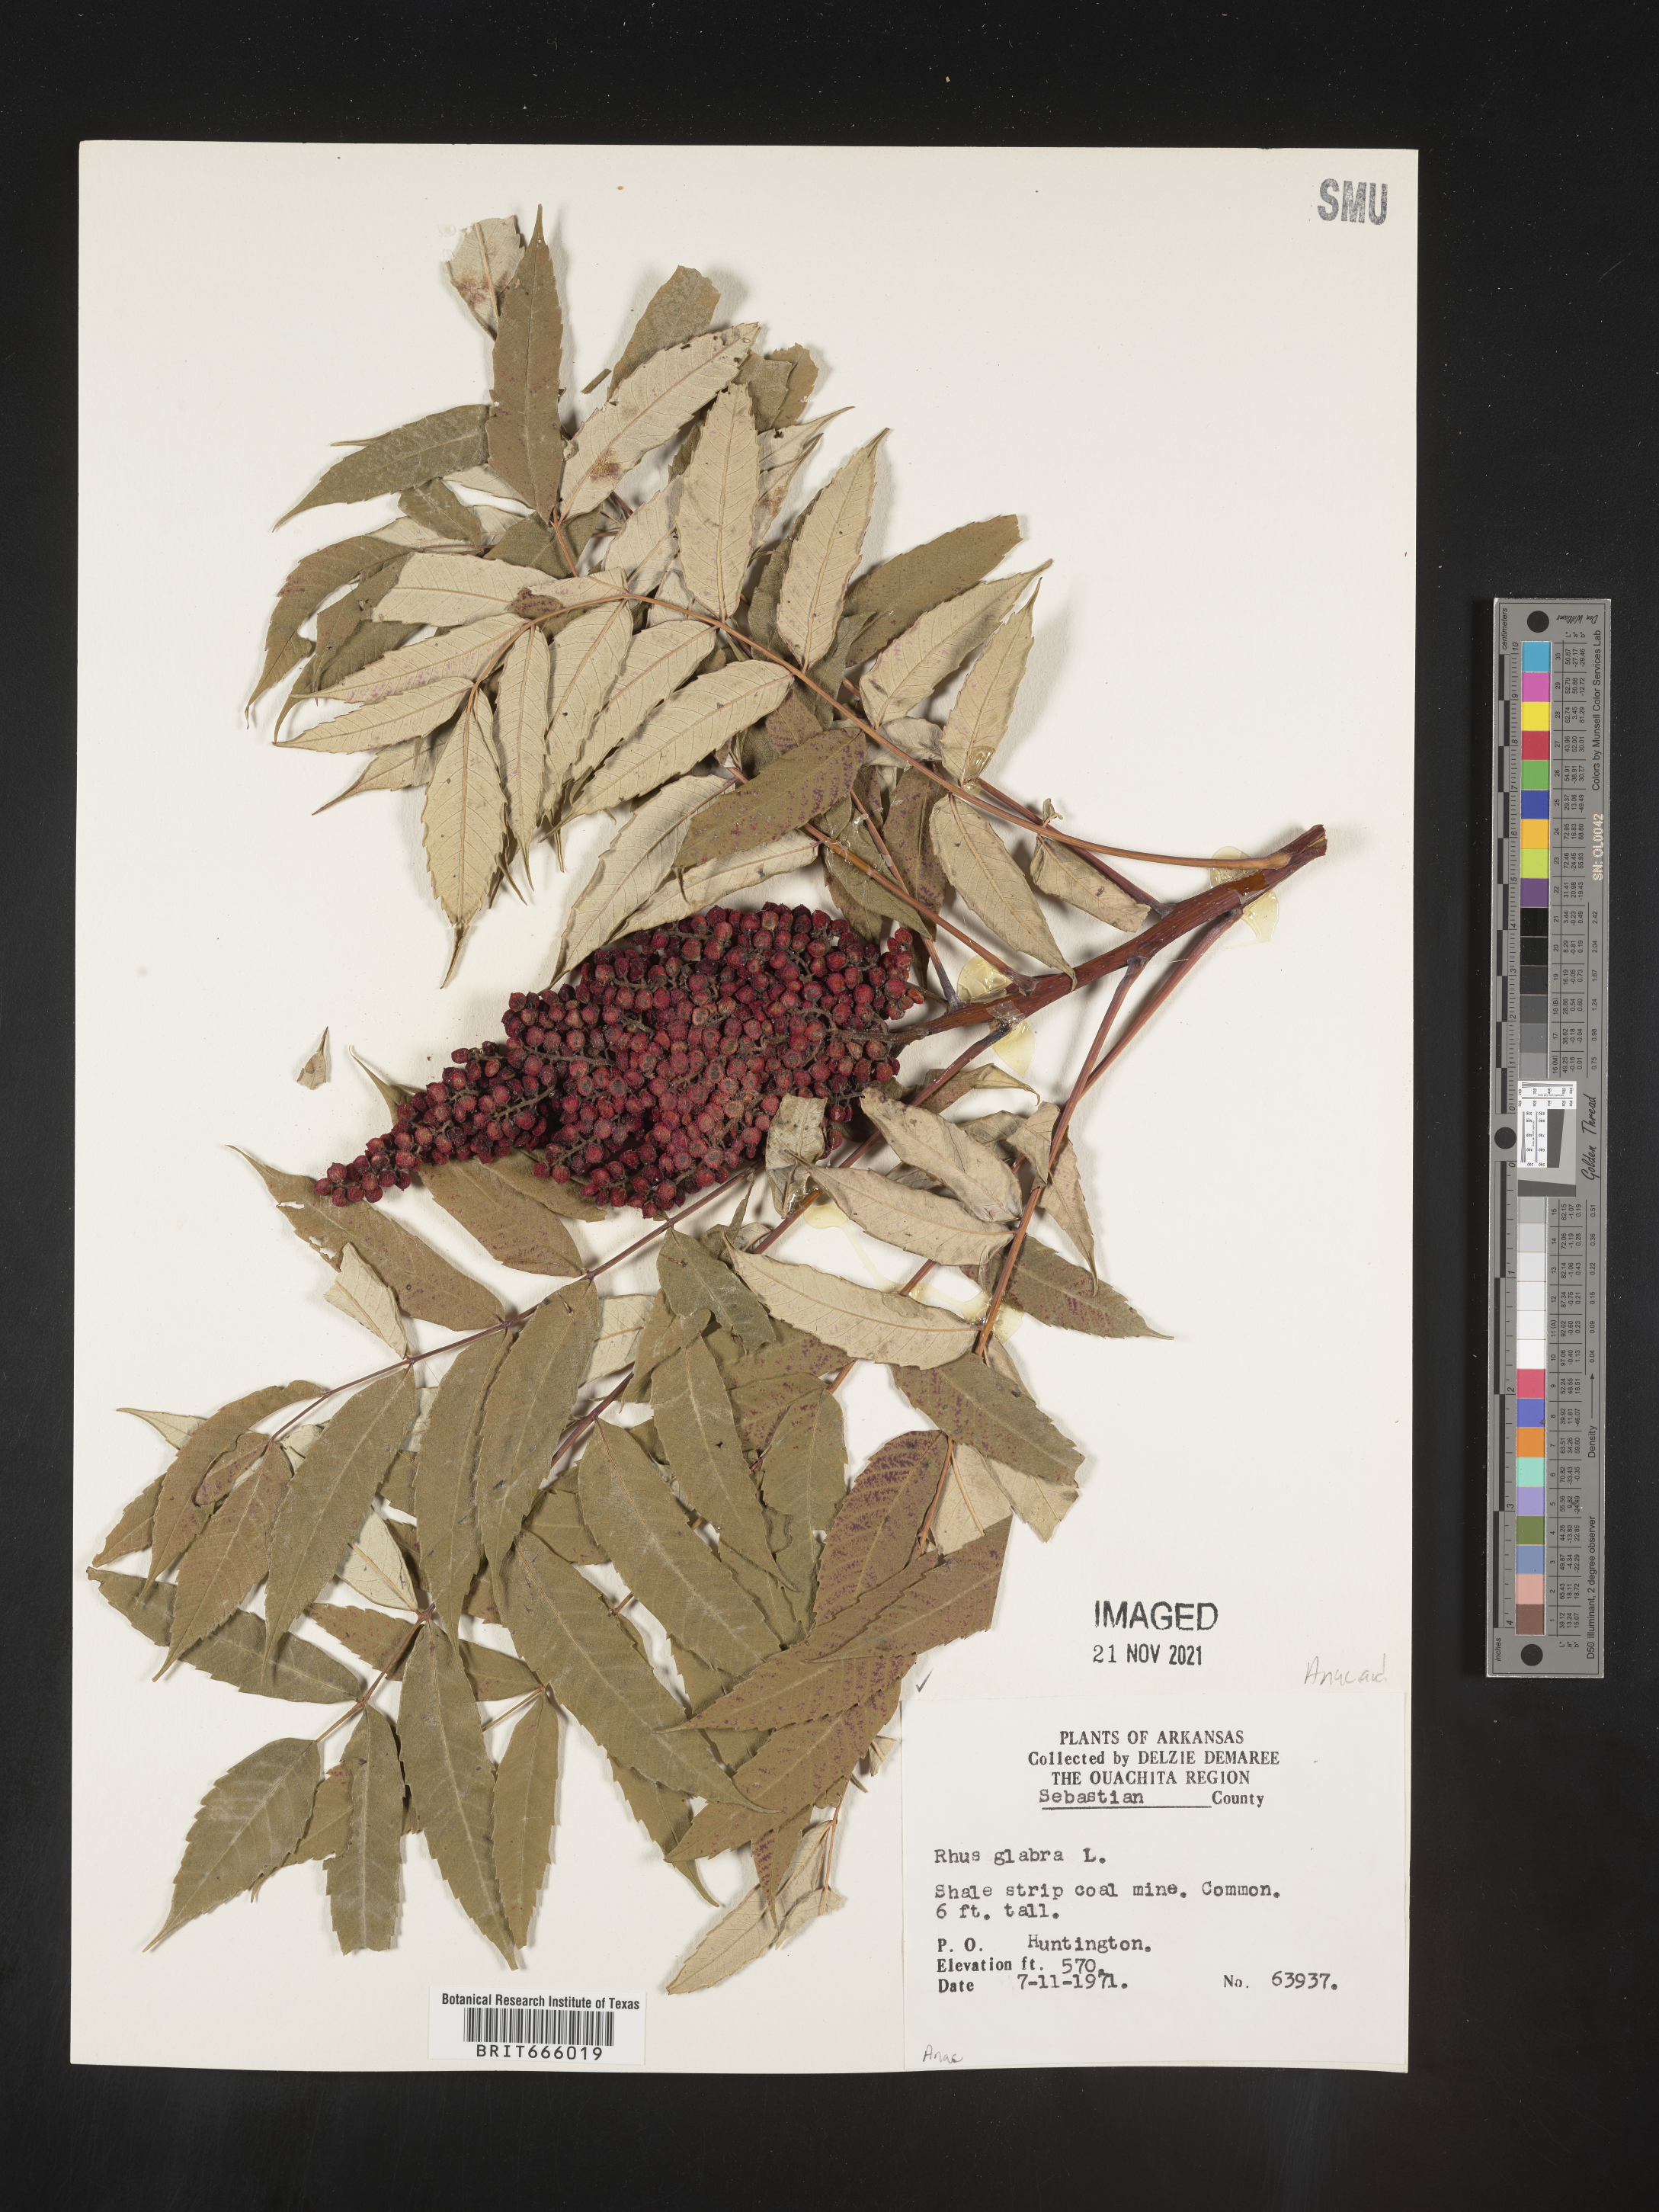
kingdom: Plantae
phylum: Tracheophyta
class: Magnoliopsida
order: Sapindales
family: Anacardiaceae
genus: Rhus
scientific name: Rhus glabra
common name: Scarlet sumac
